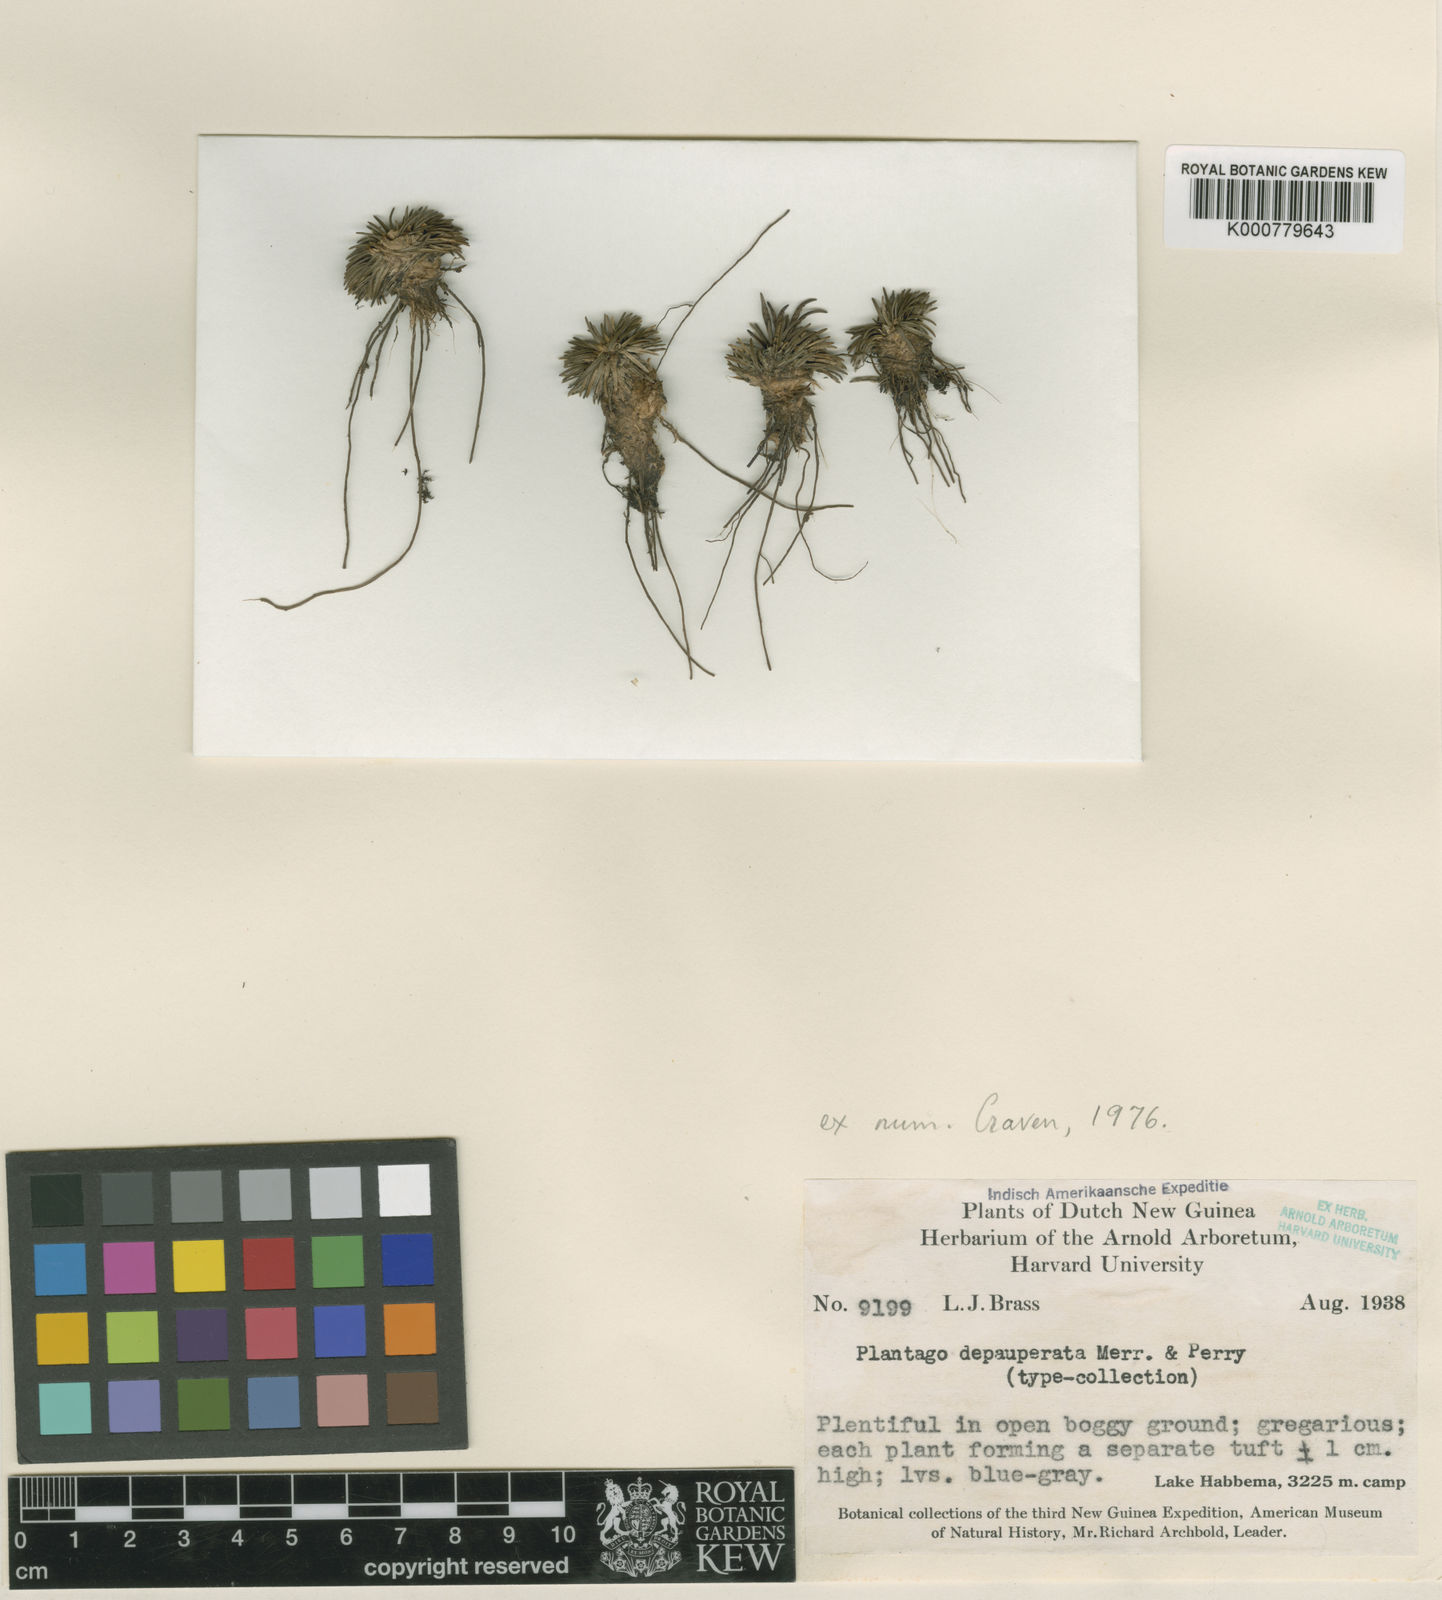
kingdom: Plantae
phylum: Tracheophyta
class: Magnoliopsida
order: Lamiales
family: Plantaginaceae
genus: Plantago
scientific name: Plantago depauperata
